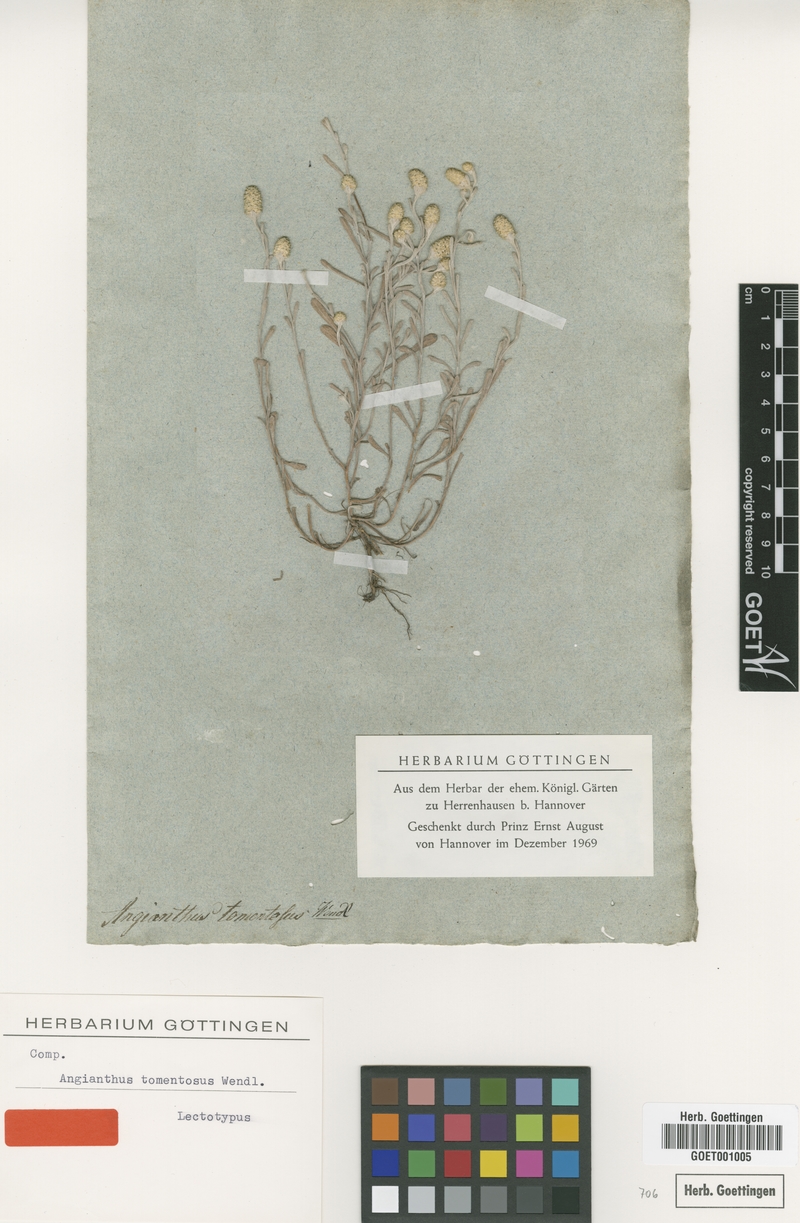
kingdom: Plantae
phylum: Tracheophyta
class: Magnoliopsida
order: Asterales
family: Asteraceae
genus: Siloxerus
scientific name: Siloxerus tomentosus
